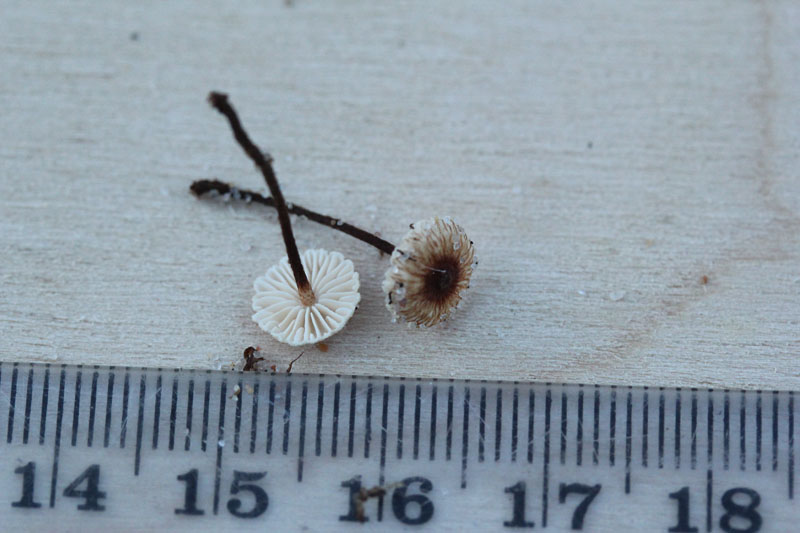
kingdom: Fungi
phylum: Basidiomycota
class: Agaricomycetes
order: Agaricales
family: Marasmiaceae
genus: Crinipellis
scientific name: Crinipellis scabella
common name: børstefod
